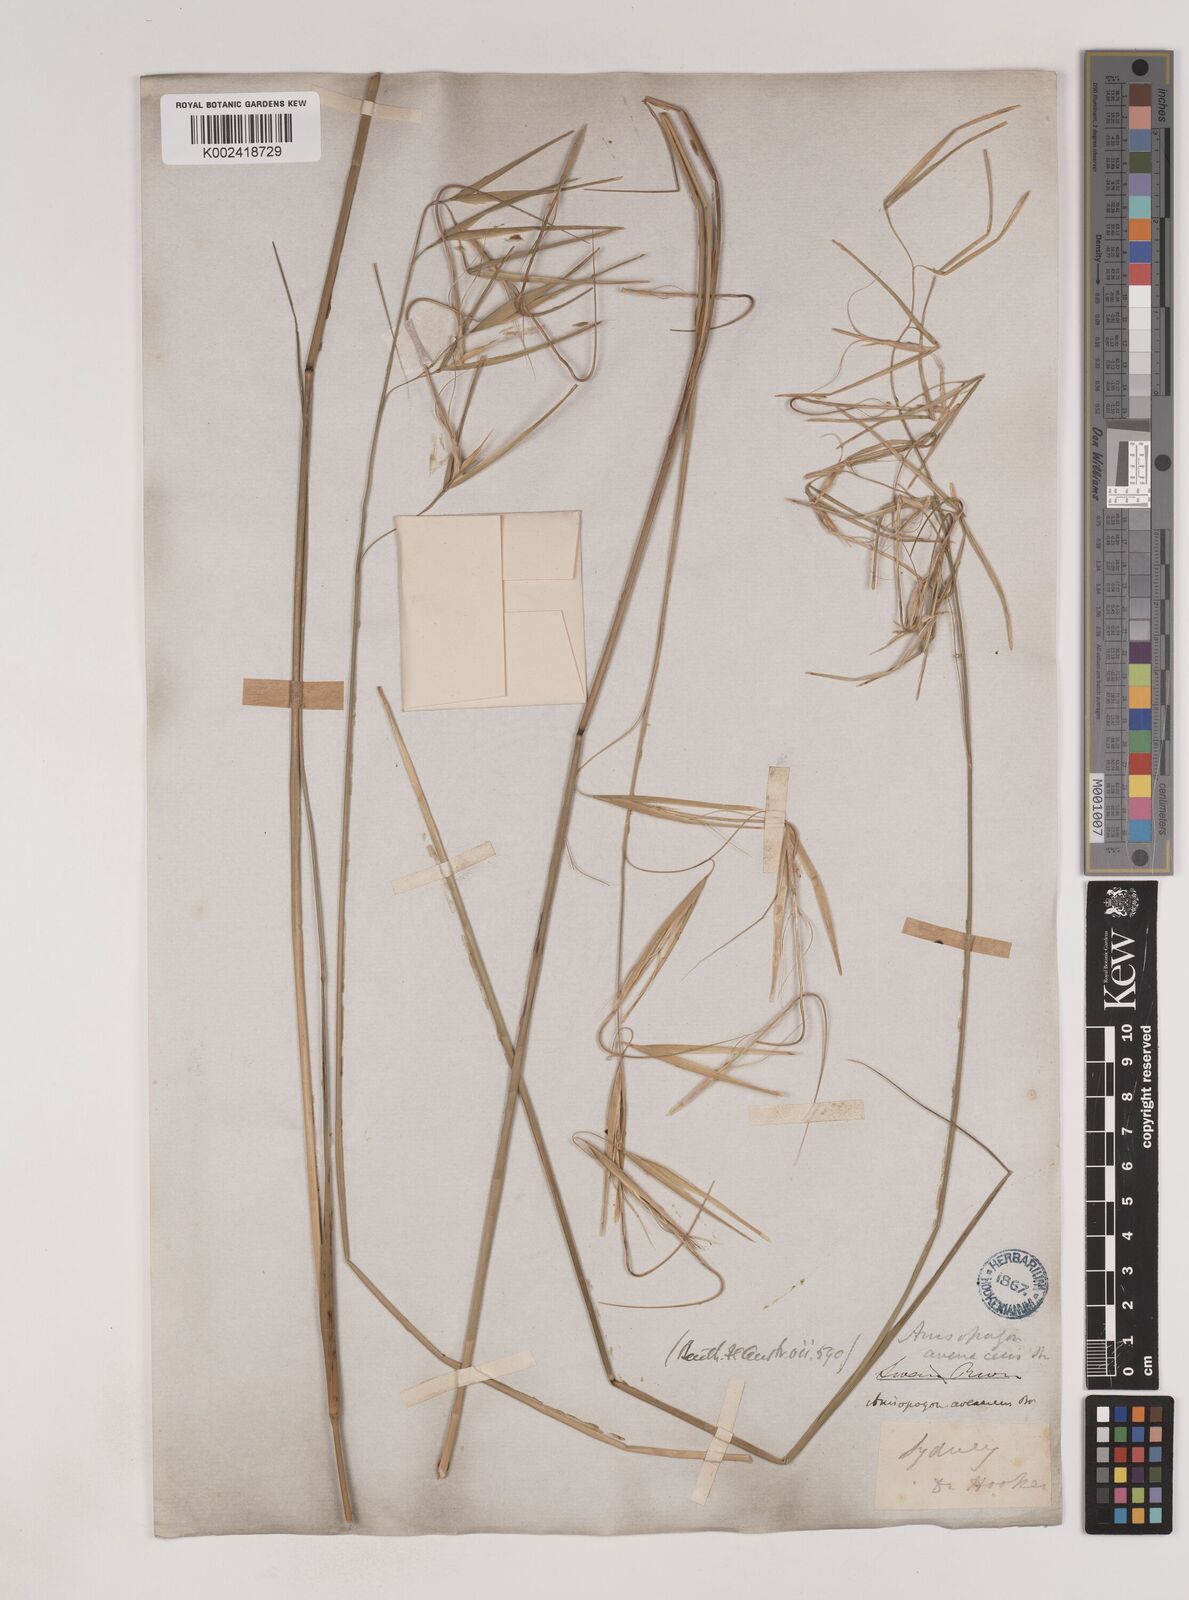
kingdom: Plantae
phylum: Tracheophyta
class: Liliopsida
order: Poales
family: Poaceae
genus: Anisopogon
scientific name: Anisopogon avenaceus
